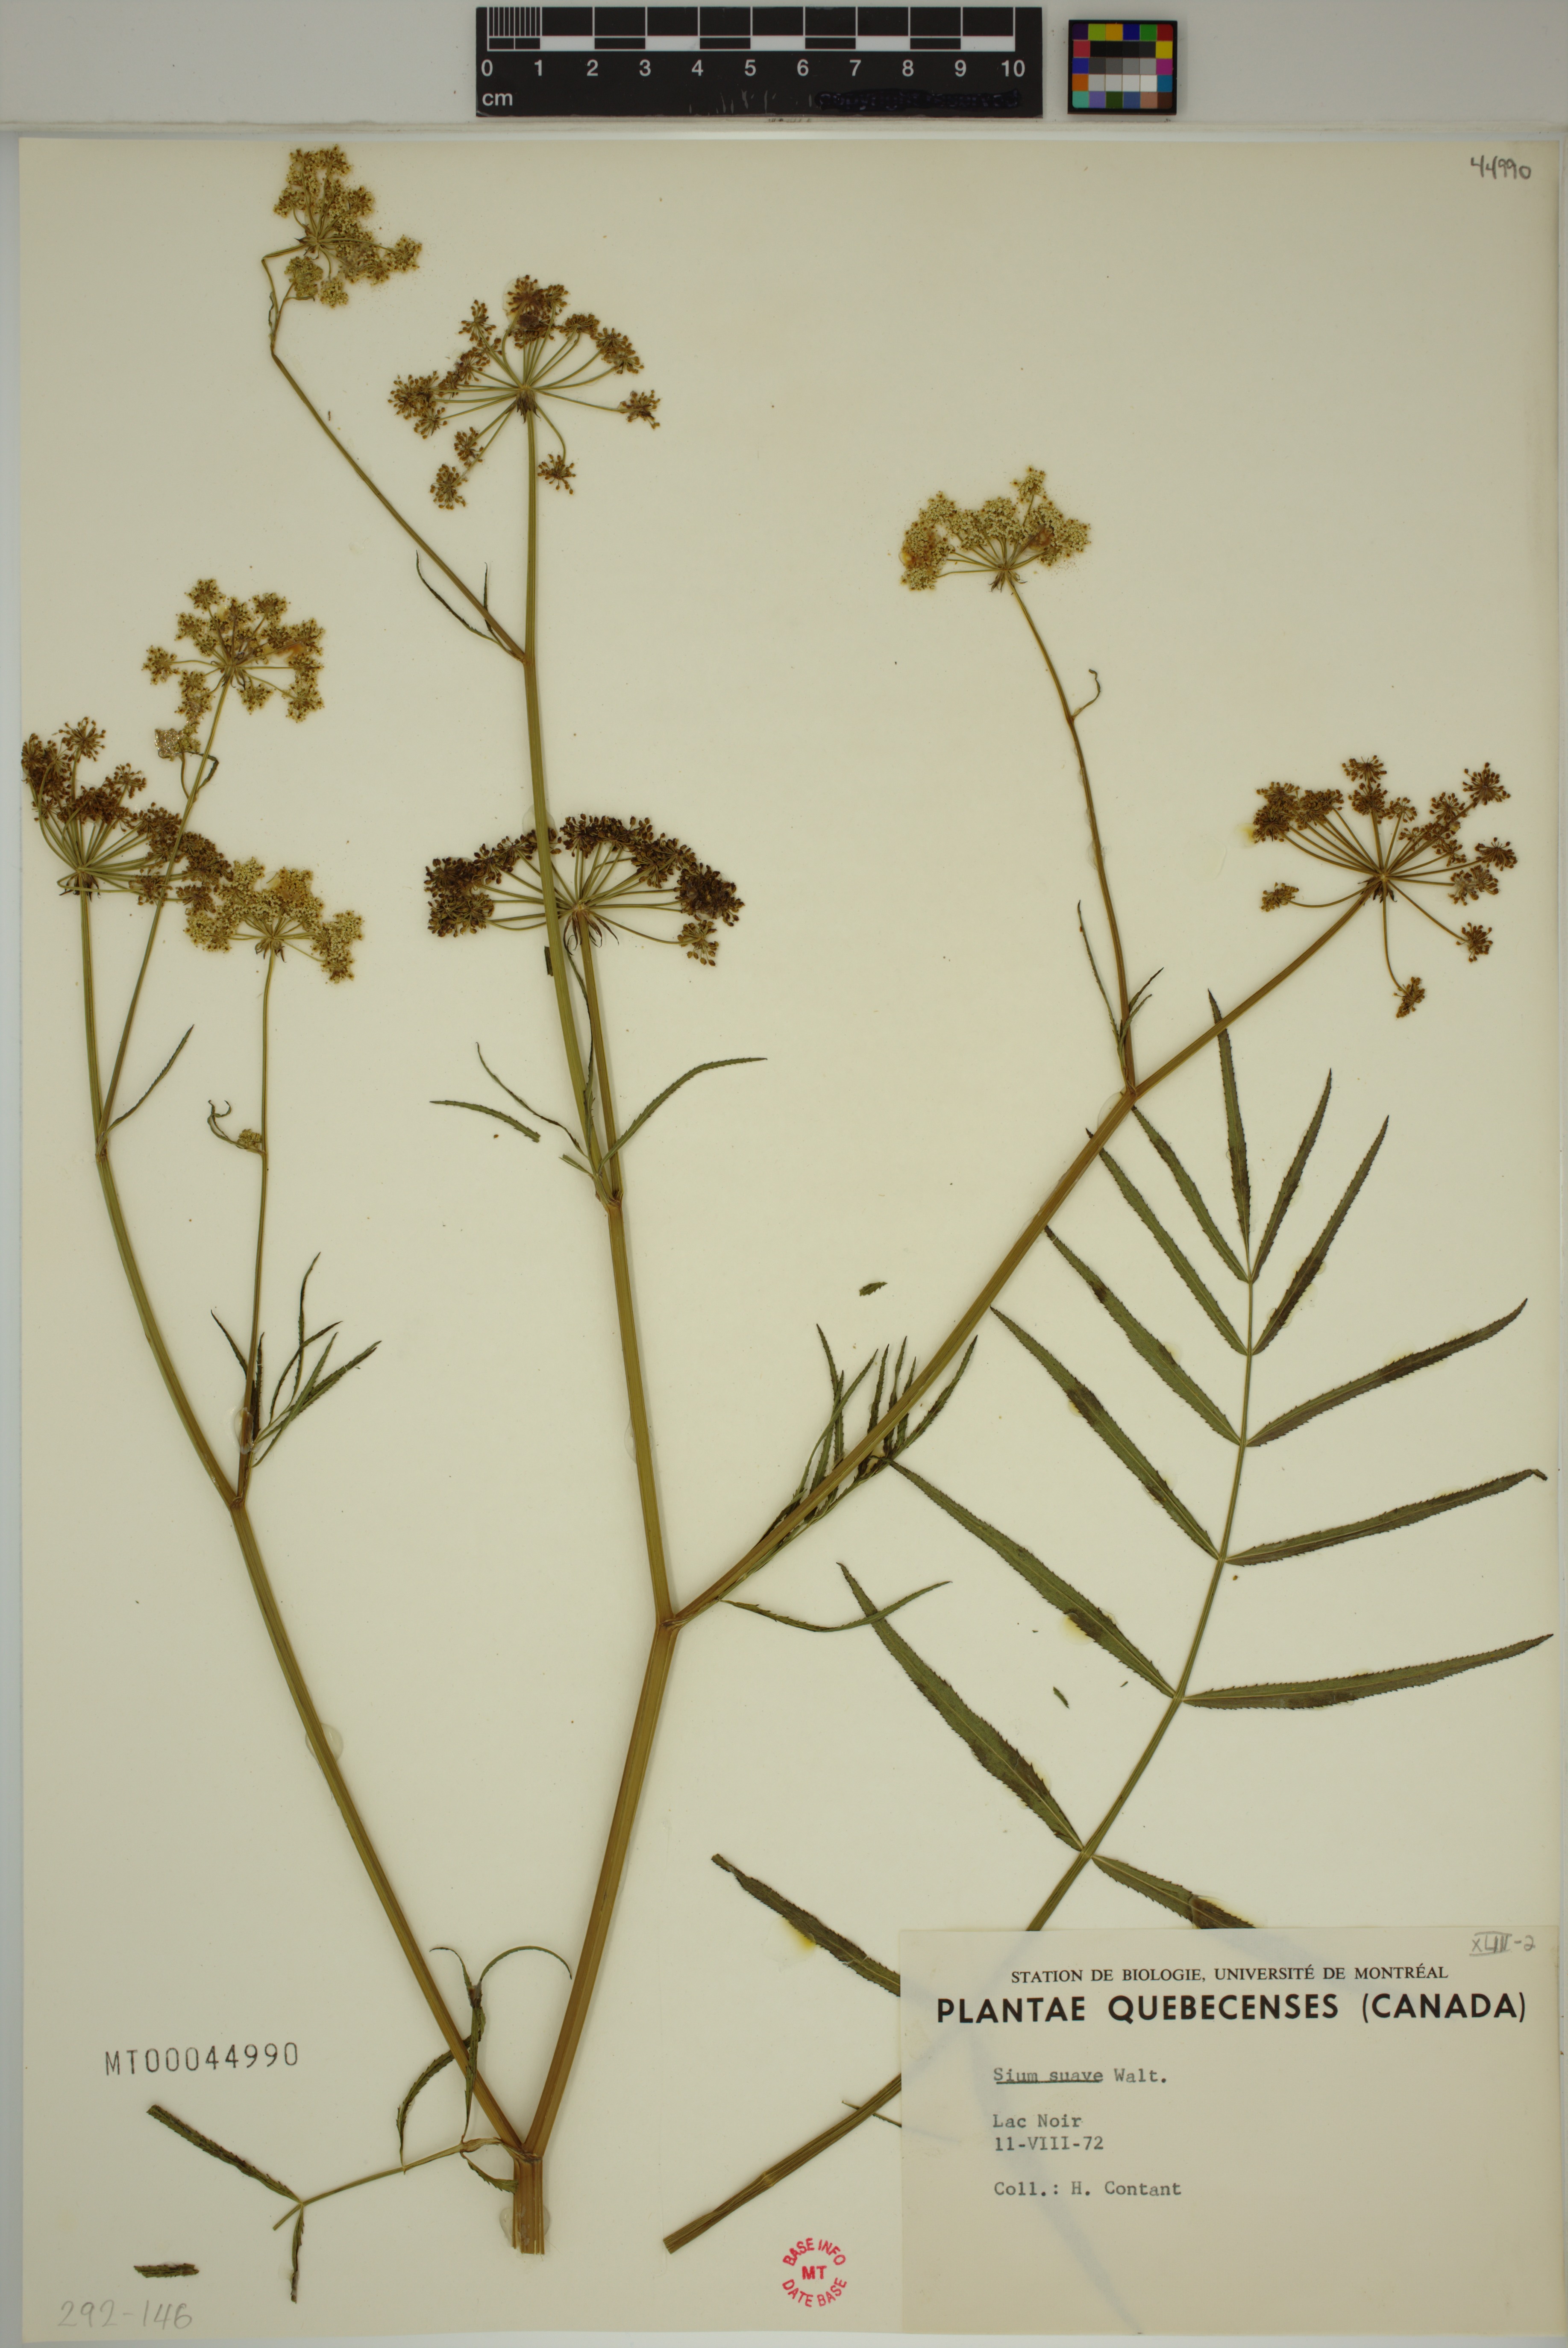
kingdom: Plantae
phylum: Tracheophyta
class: Magnoliopsida
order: Apiales
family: Apiaceae
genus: Sium
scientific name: Sium suave
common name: Hemlock water-parsnip
